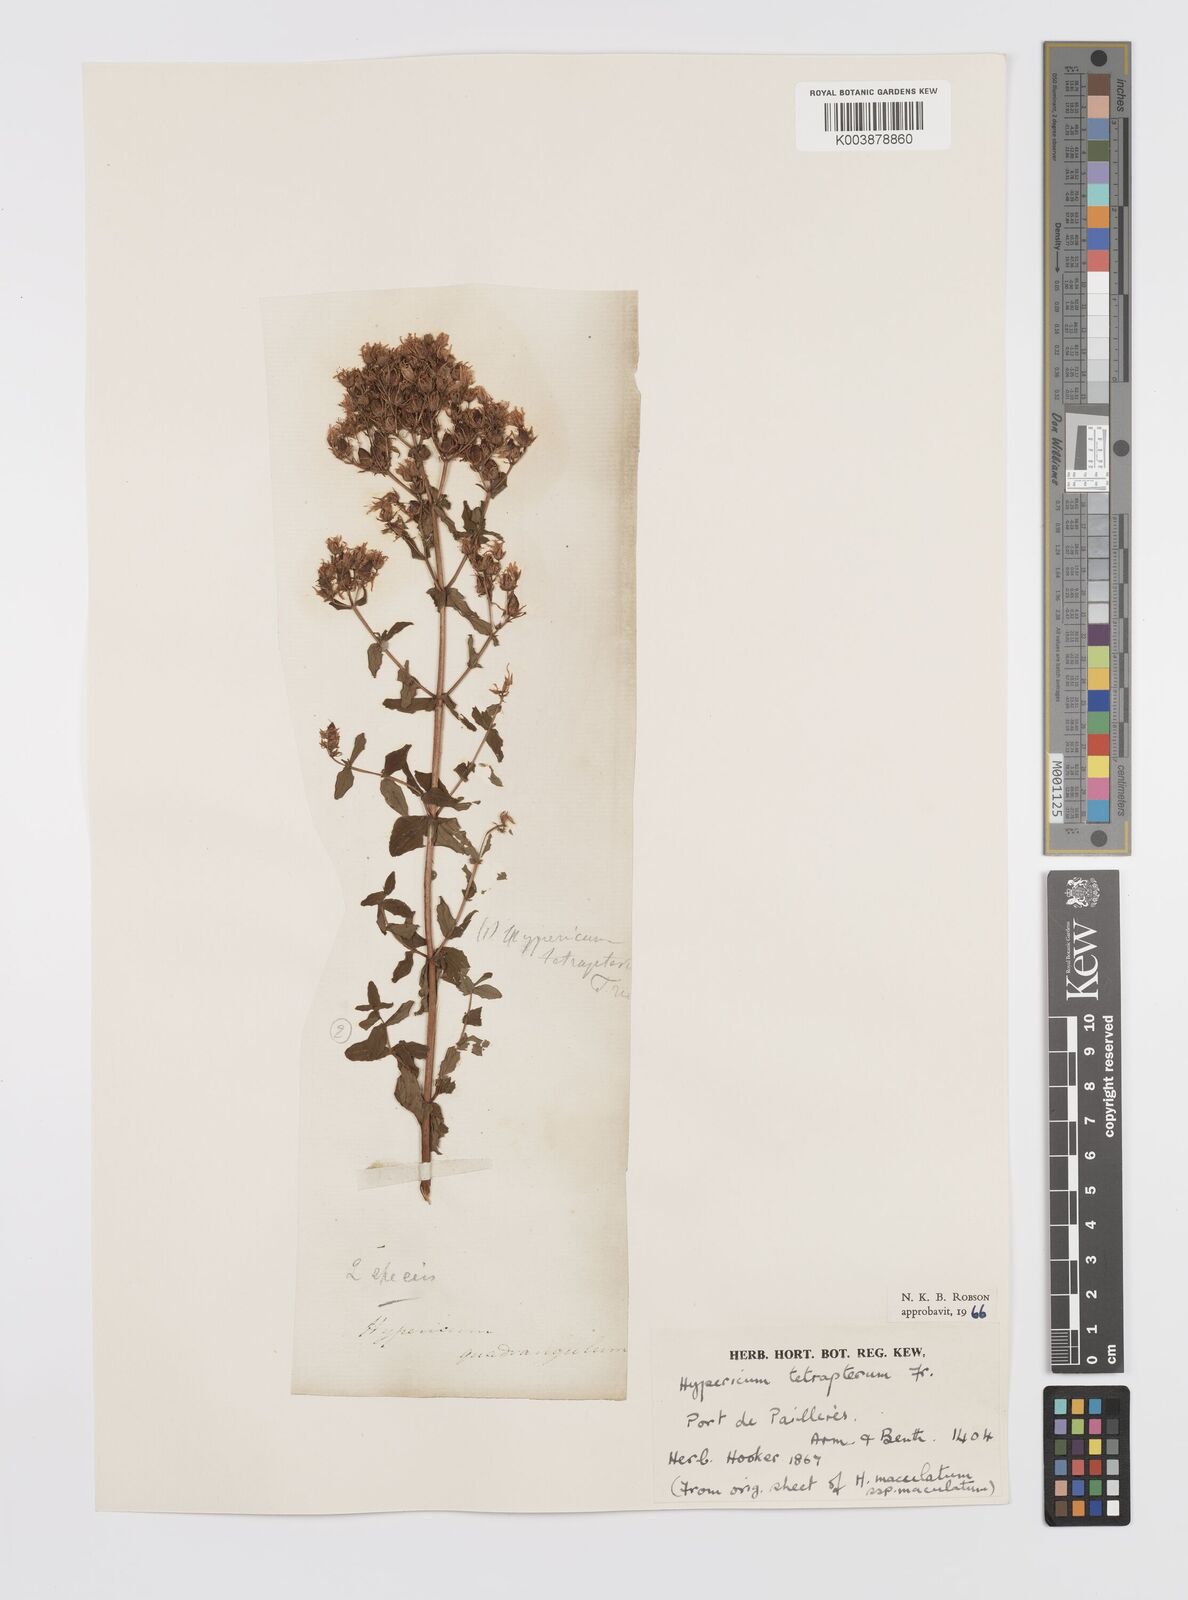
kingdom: Plantae
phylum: Tracheophyta
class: Magnoliopsida
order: Malpighiales
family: Hypericaceae
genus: Hypericum
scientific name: Hypericum tetrapterum
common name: Square-stalked st. john's-wort
